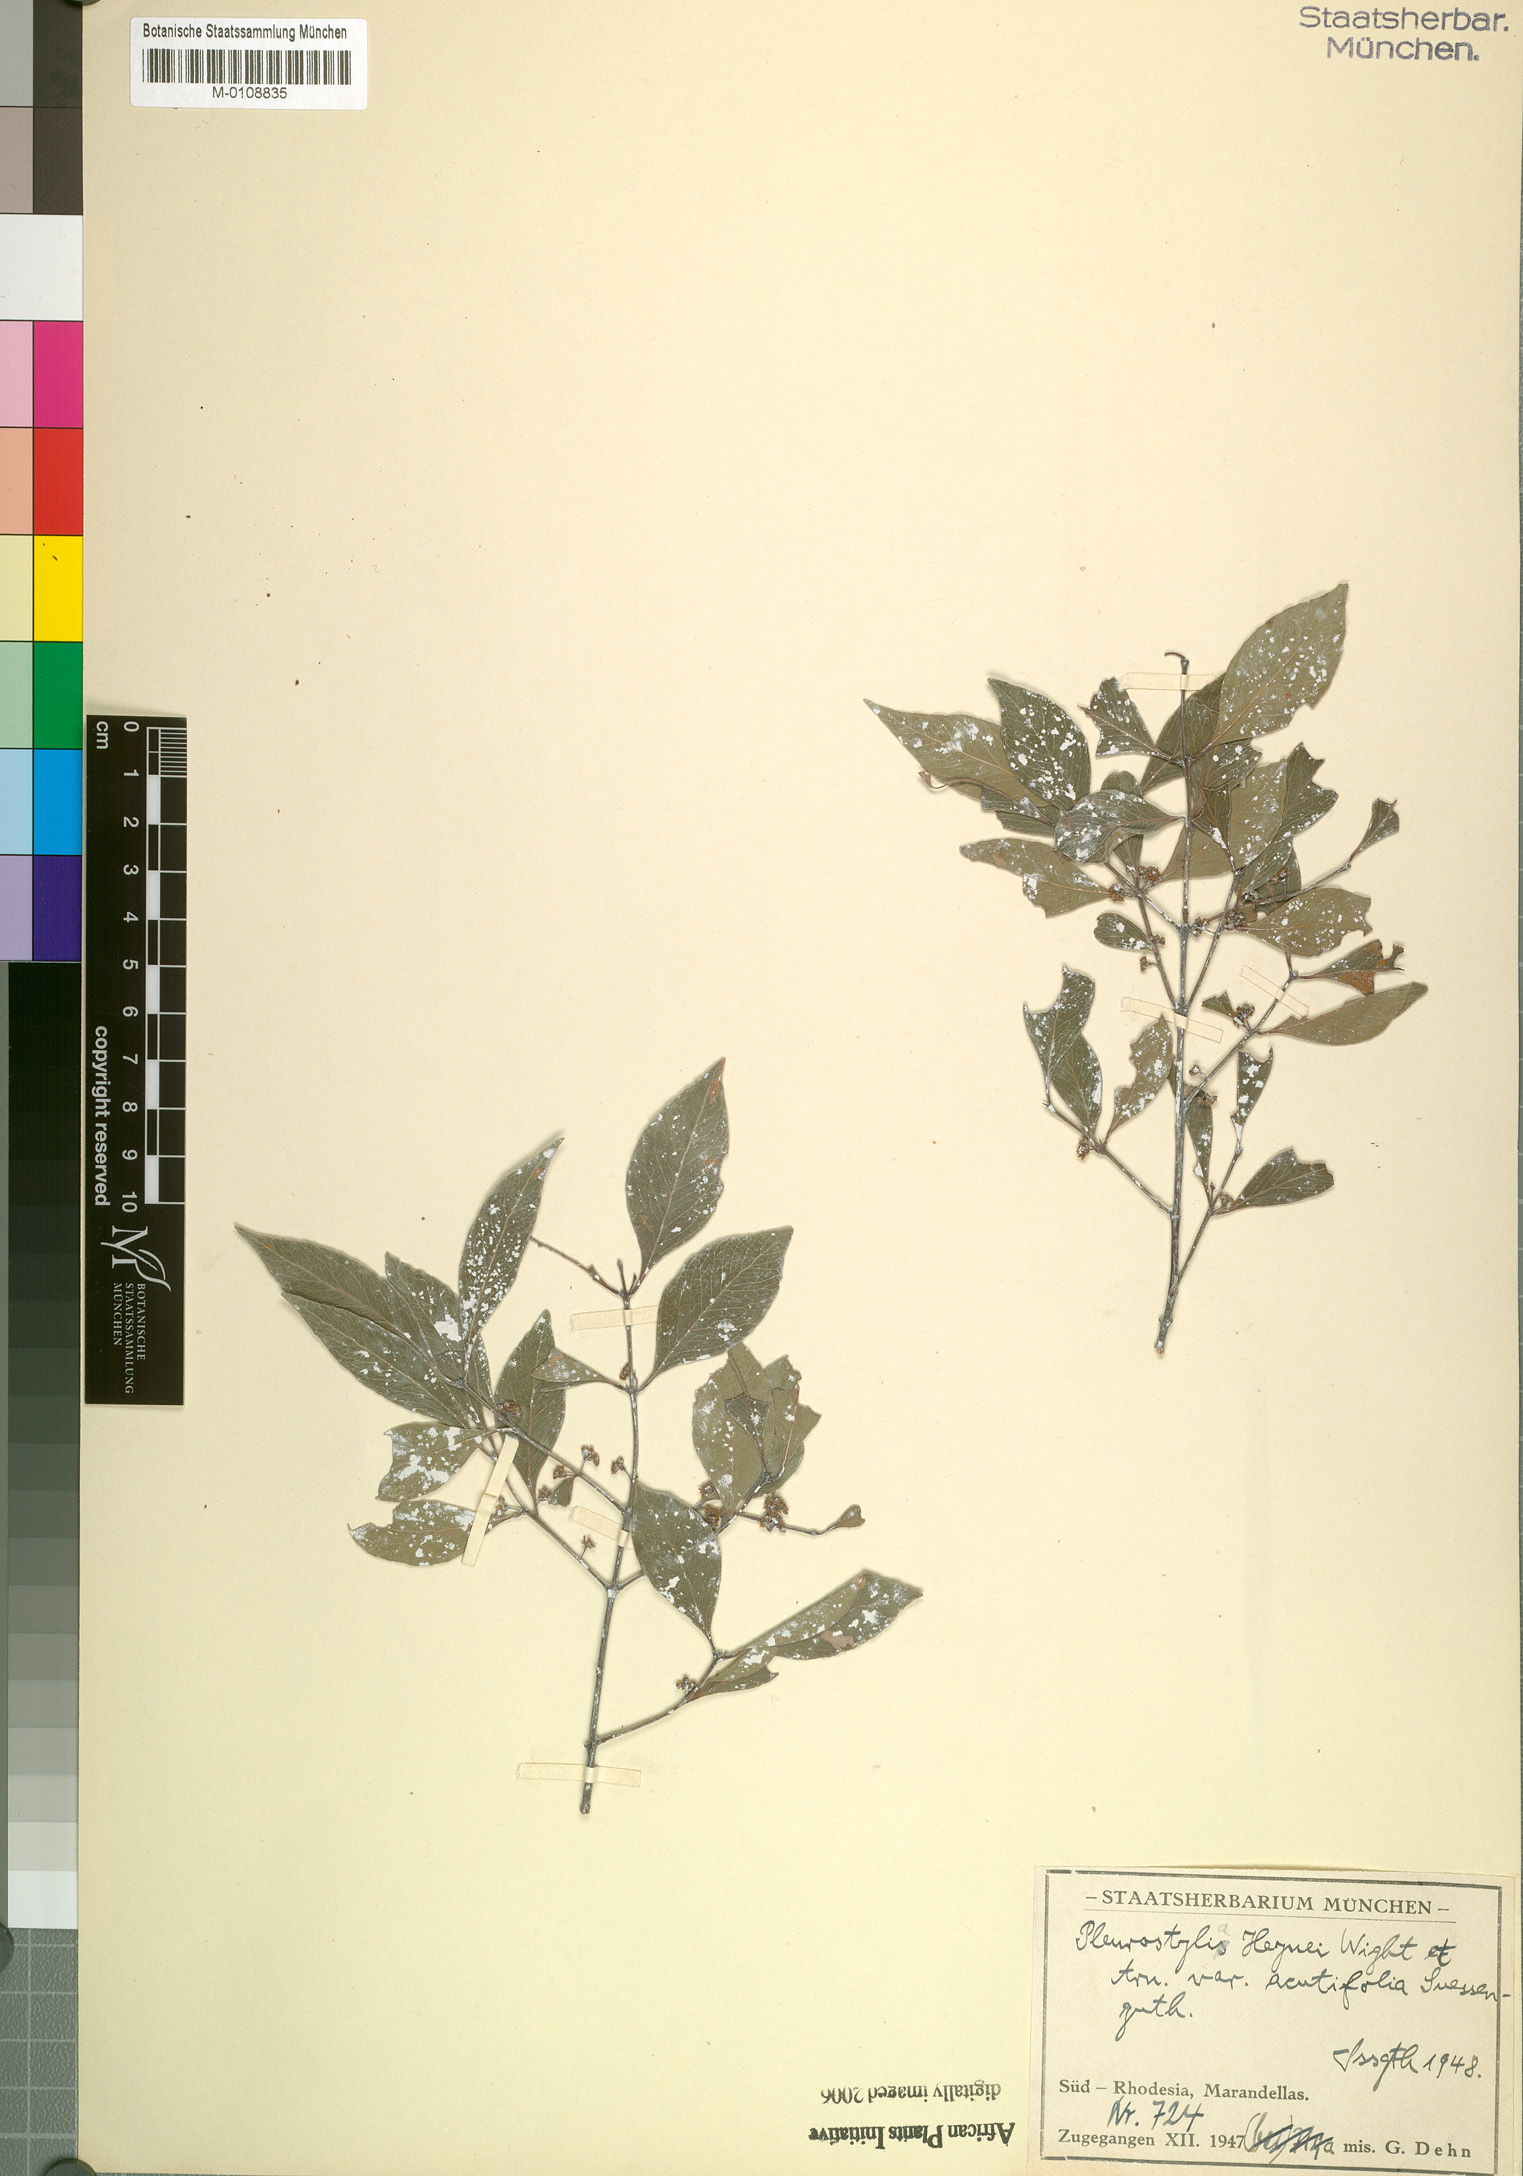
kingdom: Plantae
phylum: Tracheophyta
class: Magnoliopsida
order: Celastrales
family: Celastraceae
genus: Pleurostylia
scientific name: Pleurostylia africana
